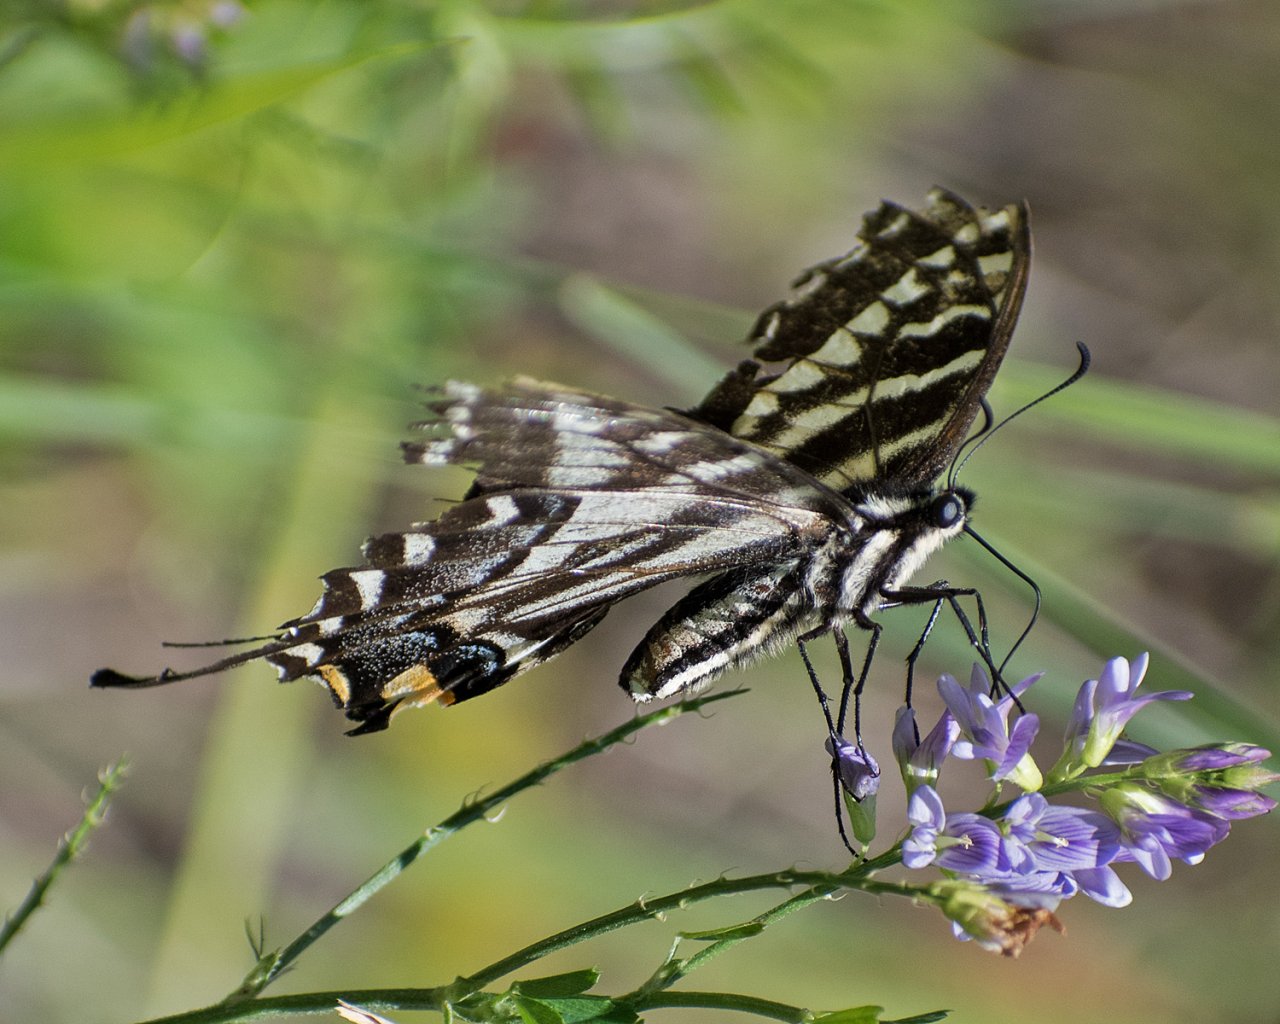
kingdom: Animalia
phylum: Arthropoda
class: Insecta
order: Lepidoptera
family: Papilionidae
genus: Pterourus
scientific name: Pterourus eurymedon
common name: Pale Swallowtail
